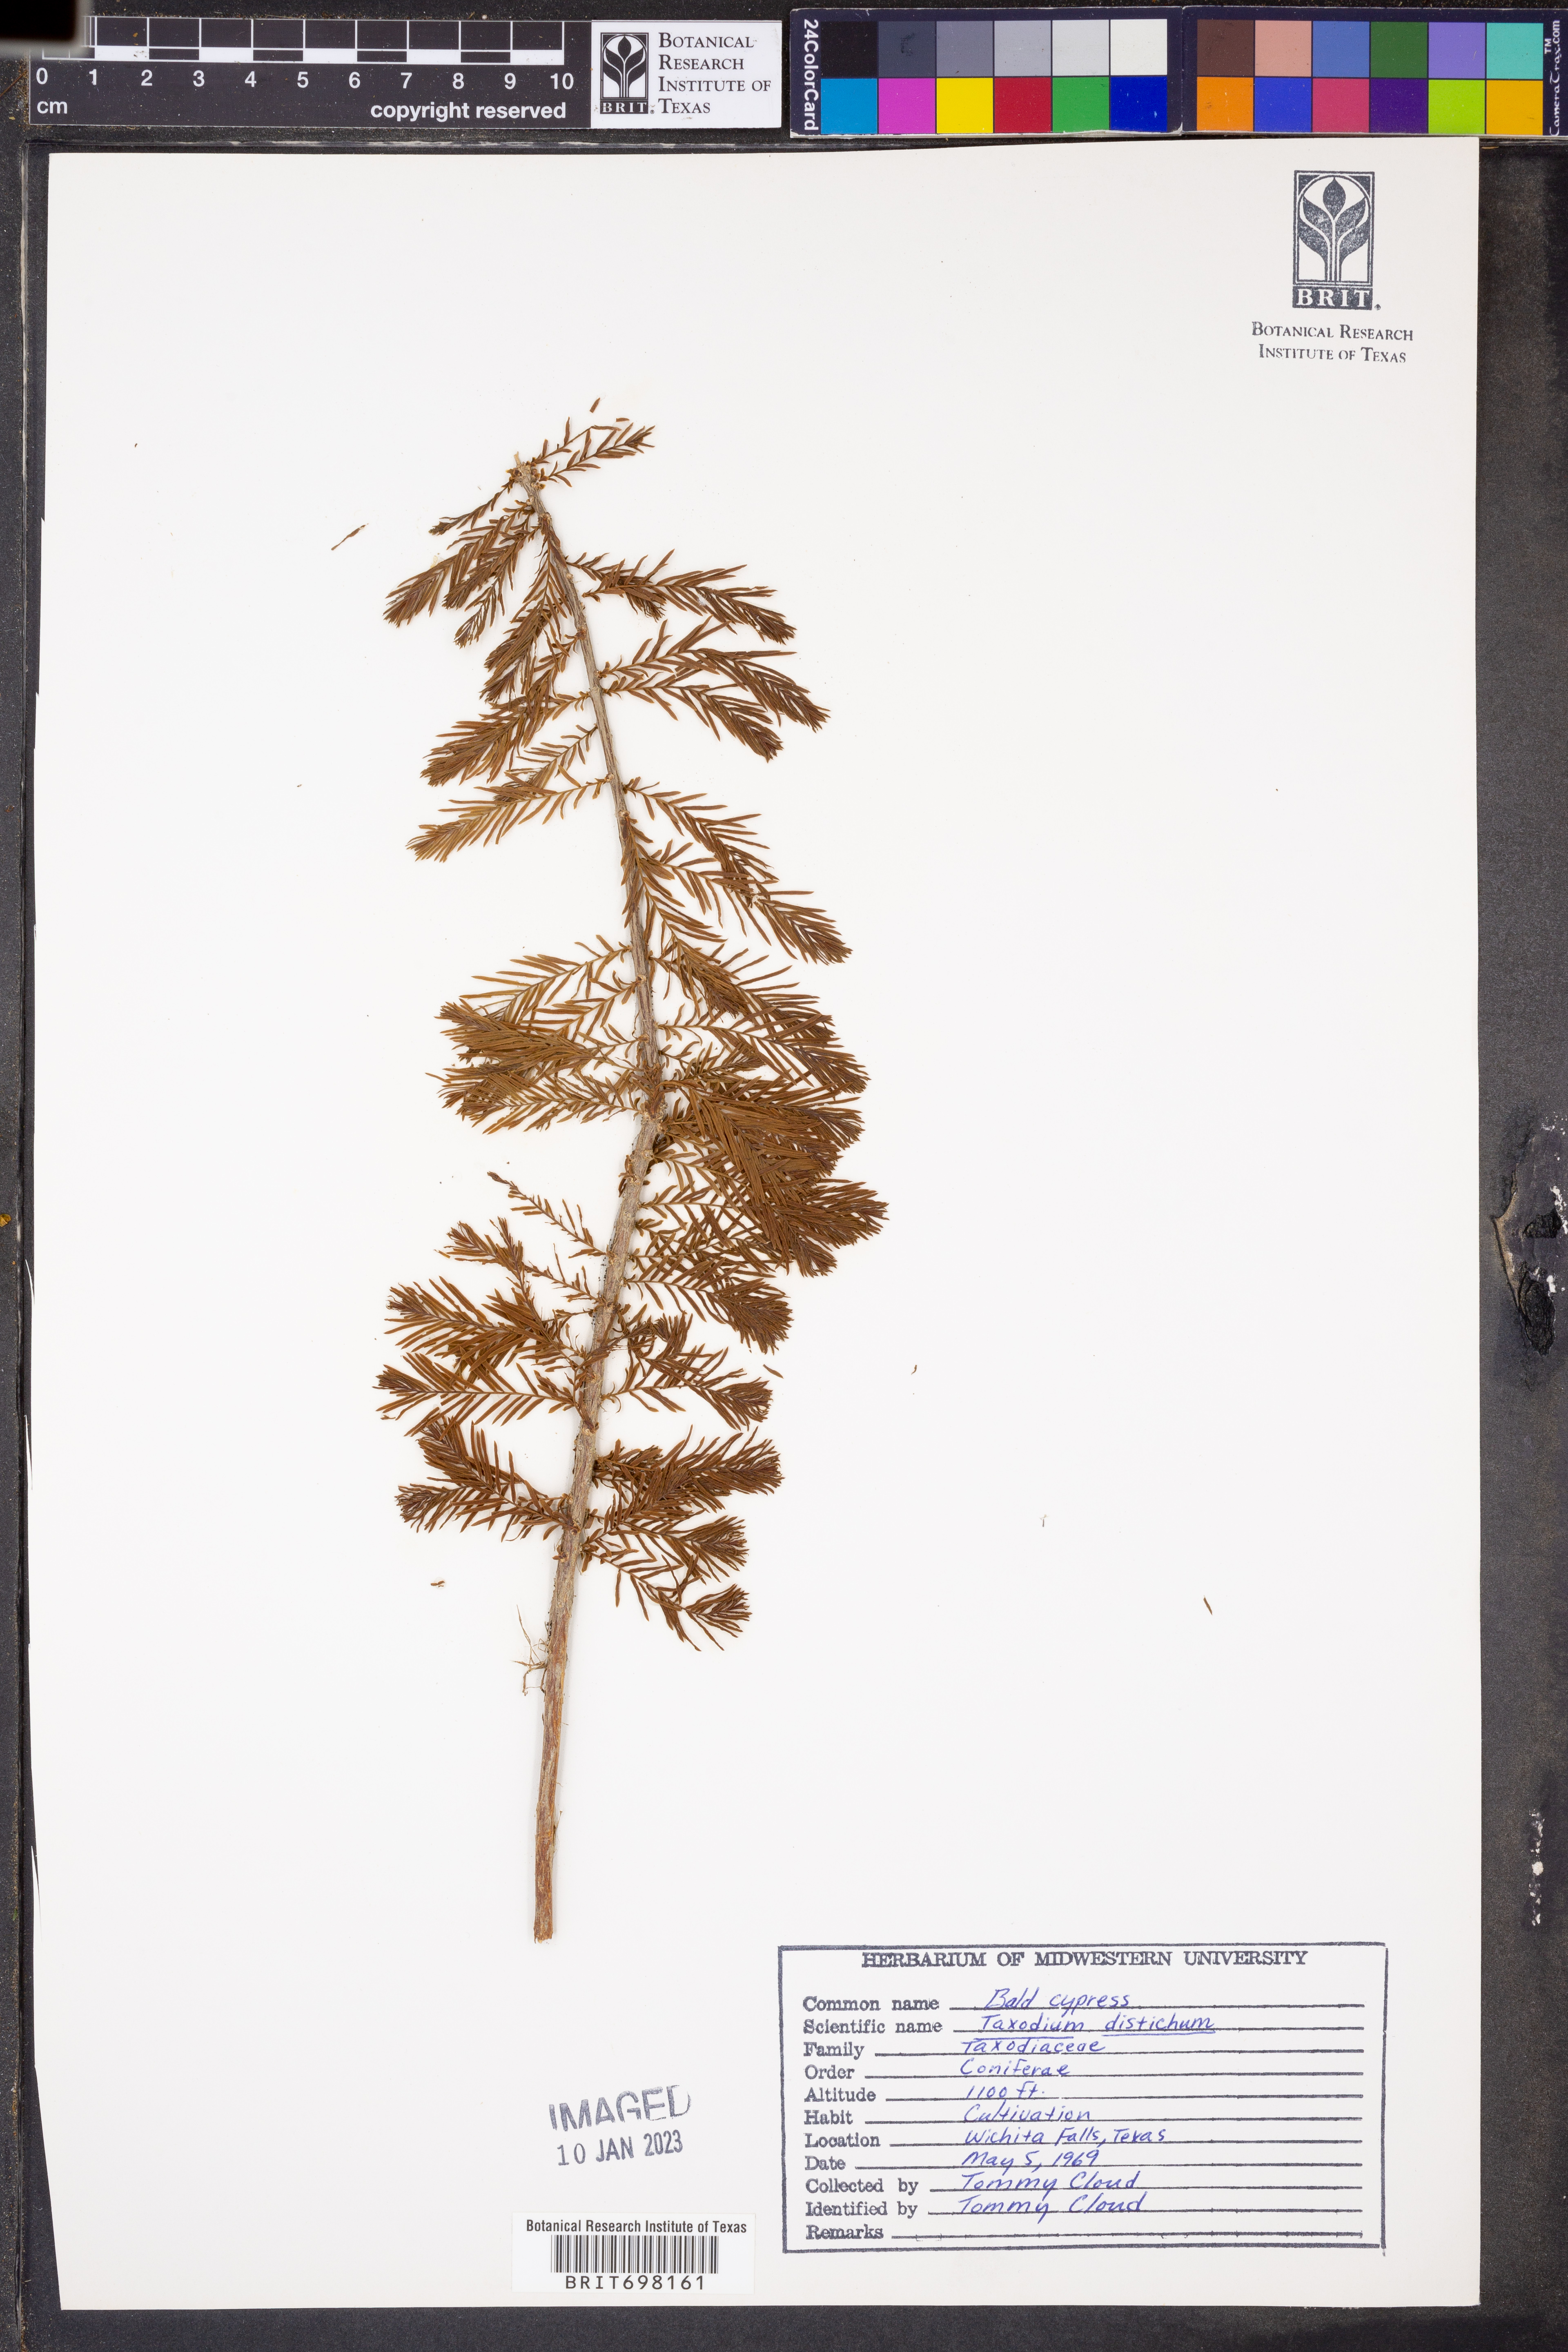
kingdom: Plantae
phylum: Tracheophyta
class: Pinopsida
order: Pinales
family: Cupressaceae
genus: Taxodium
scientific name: Taxodium distichum
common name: Bald cypress
